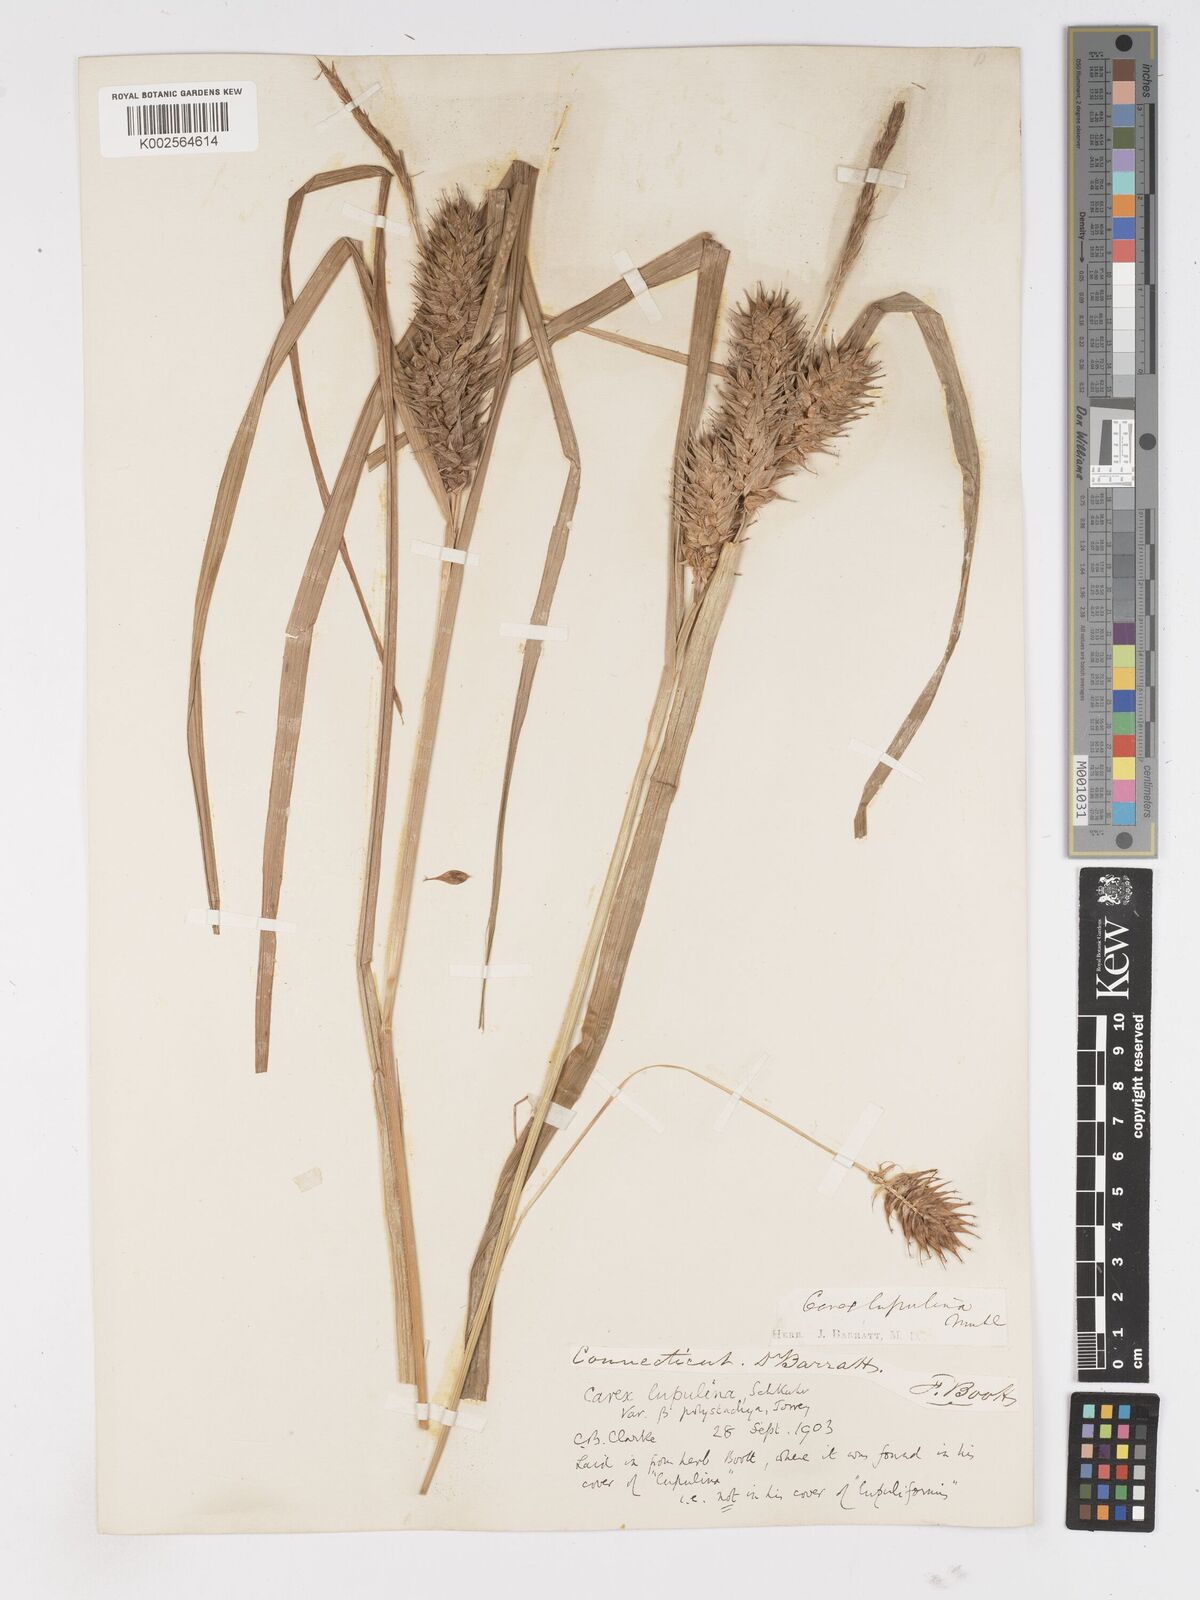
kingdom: Plantae
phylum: Tracheophyta
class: Liliopsida
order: Poales
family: Cyperaceae
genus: Carex
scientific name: Carex lupuliformis
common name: False hop sedge
